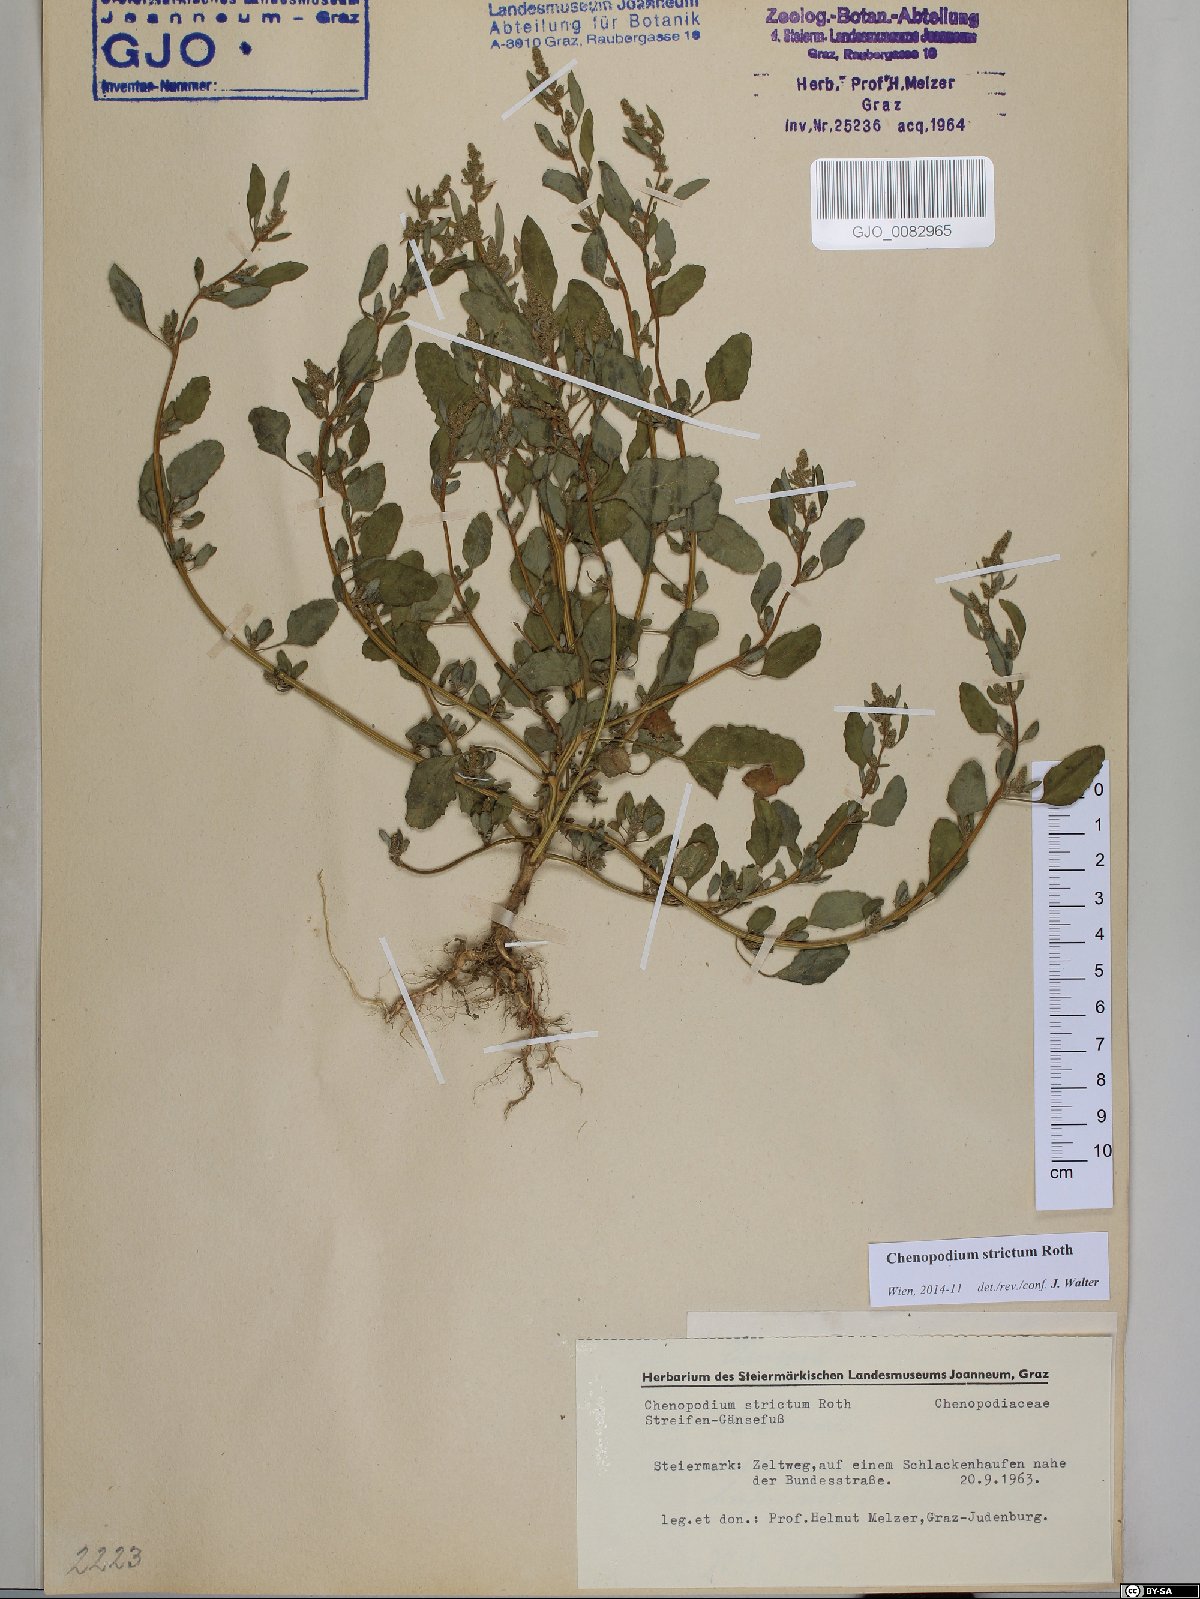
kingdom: Plantae
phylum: Tracheophyta
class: Magnoliopsida
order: Caryophyllales
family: Amaranthaceae
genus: Chenopodium
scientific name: Chenopodium album
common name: Fat-hen
